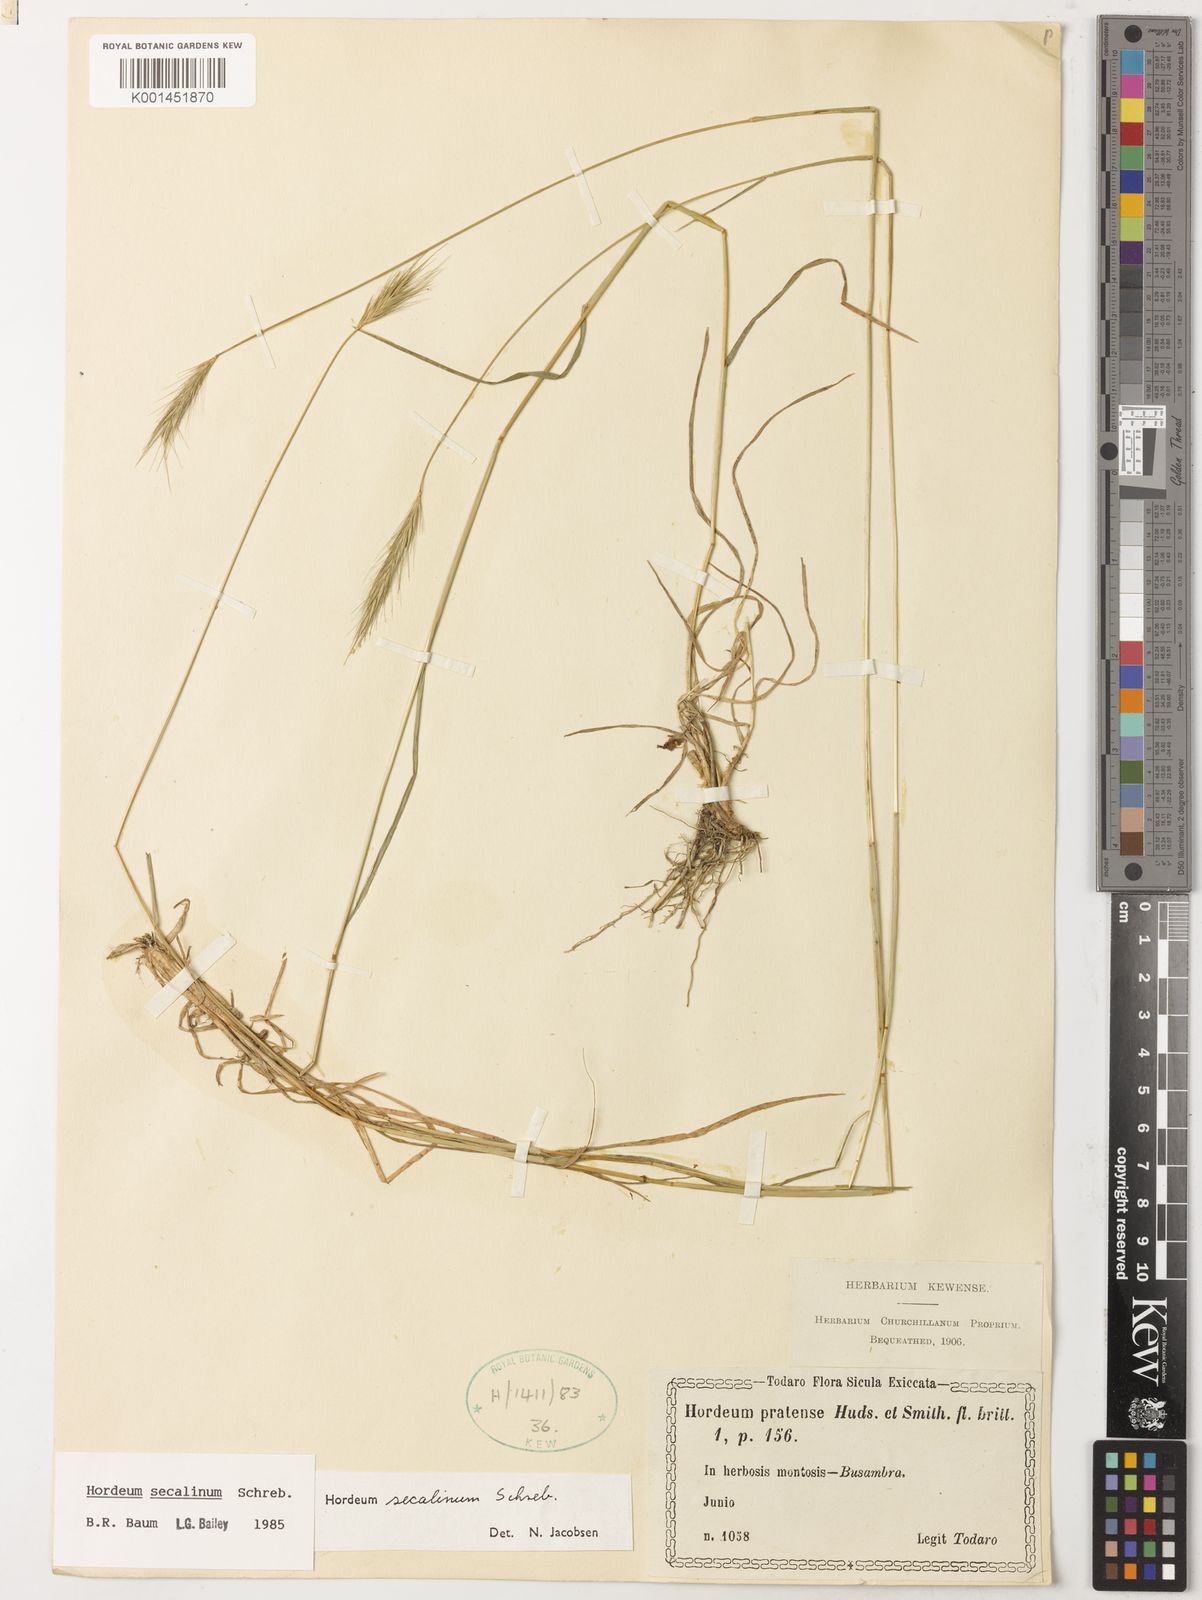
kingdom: Plantae
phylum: Tracheophyta
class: Liliopsida
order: Poales
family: Poaceae
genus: Hordeum
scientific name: Hordeum secalinum
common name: Meadow barley
